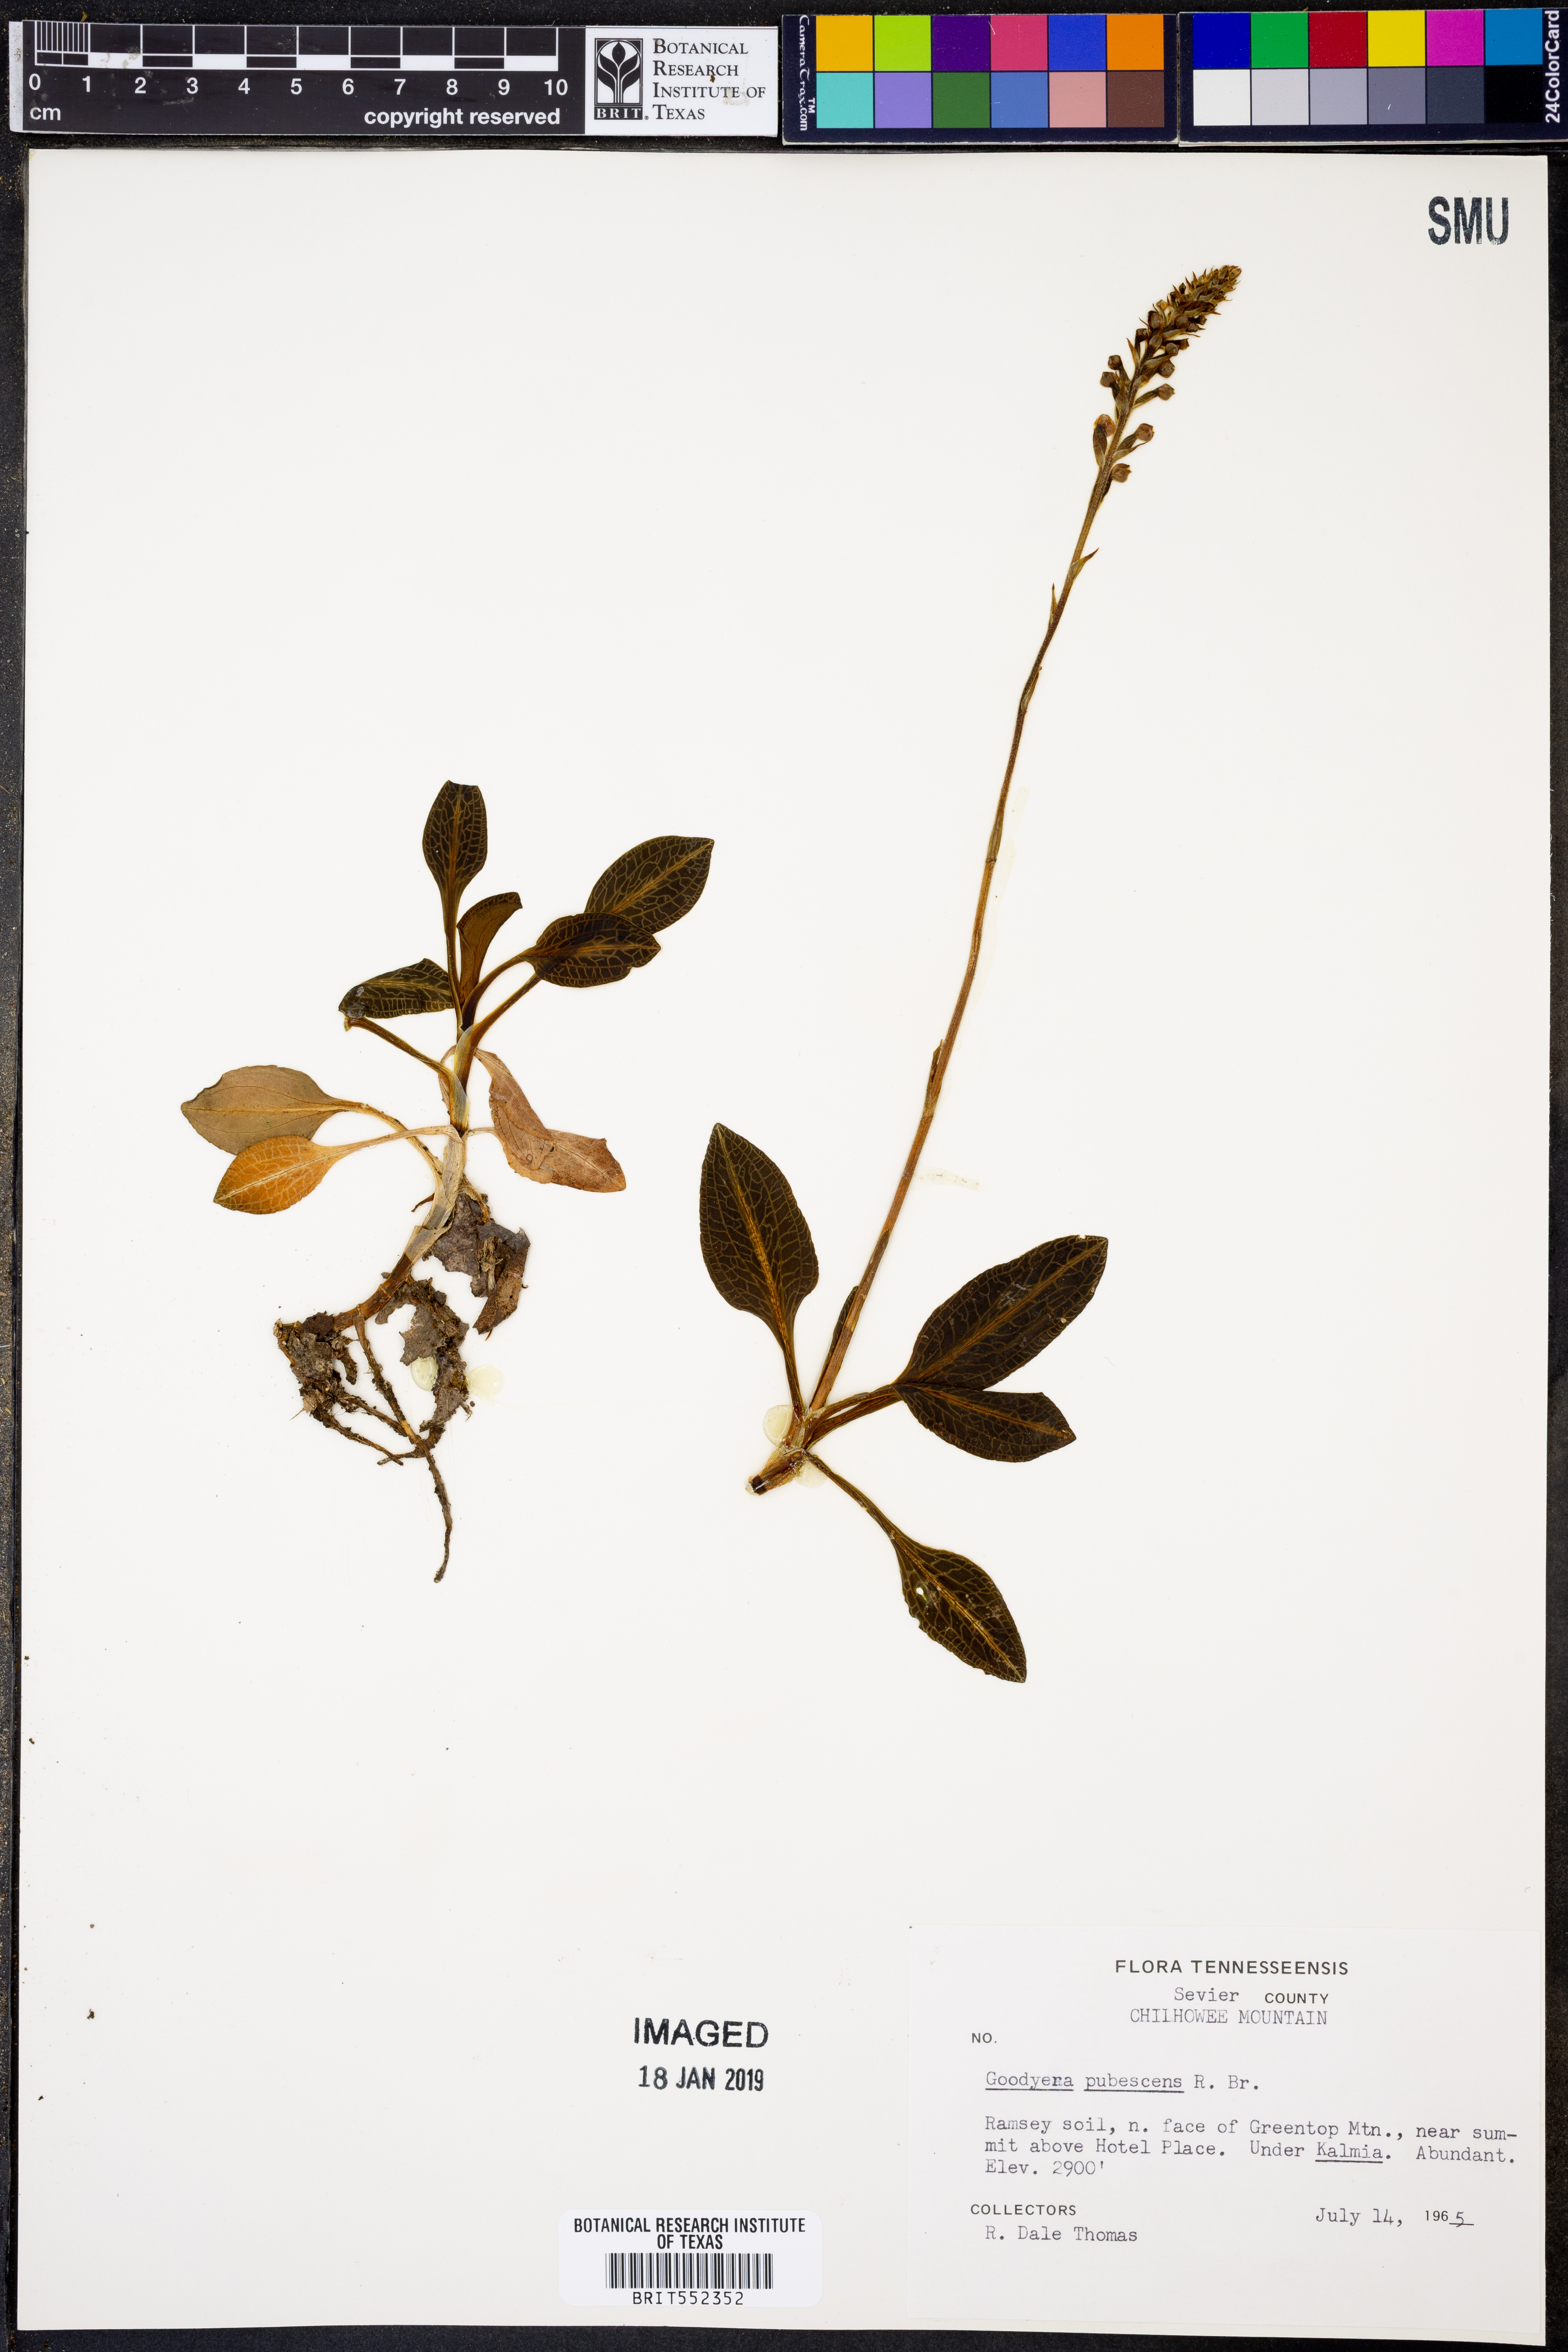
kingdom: Plantae
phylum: Tracheophyta
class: Liliopsida
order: Asparagales
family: Orchidaceae
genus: Goodyera
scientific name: Goodyera pubescens
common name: Downy rattlesnake-plantain
